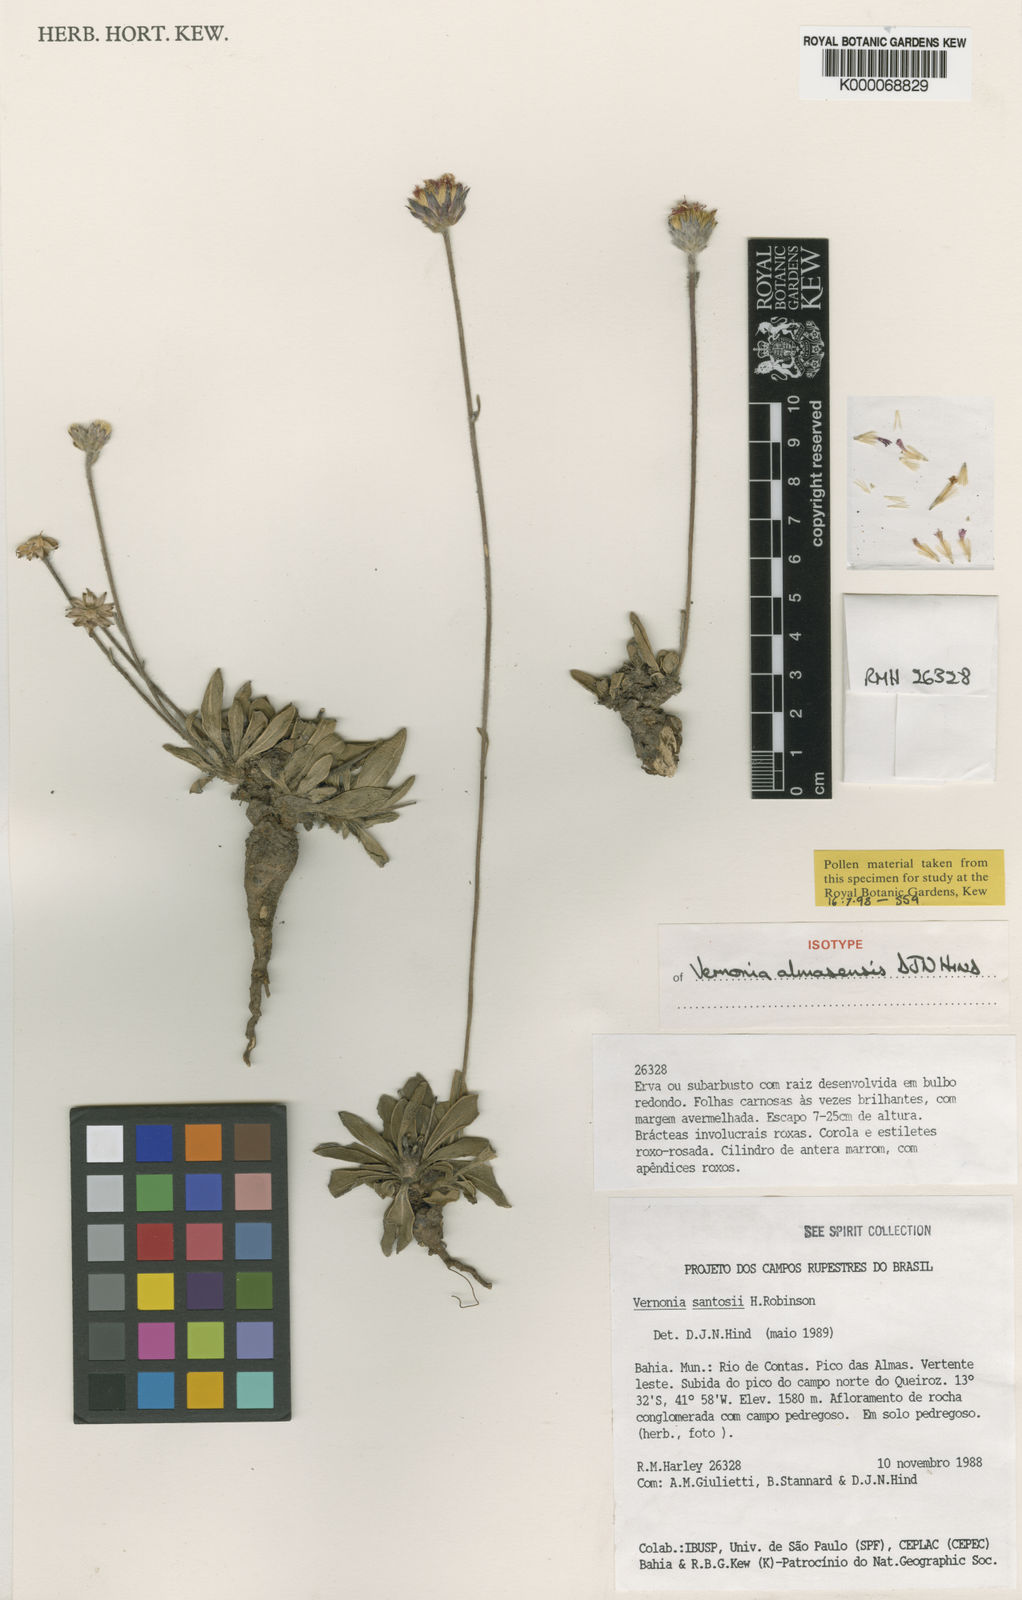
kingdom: Plantae
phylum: Tracheophyta
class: Magnoliopsida
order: Asterales
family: Asteraceae
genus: Lepidaploa
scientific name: Lepidaploa almasensis
